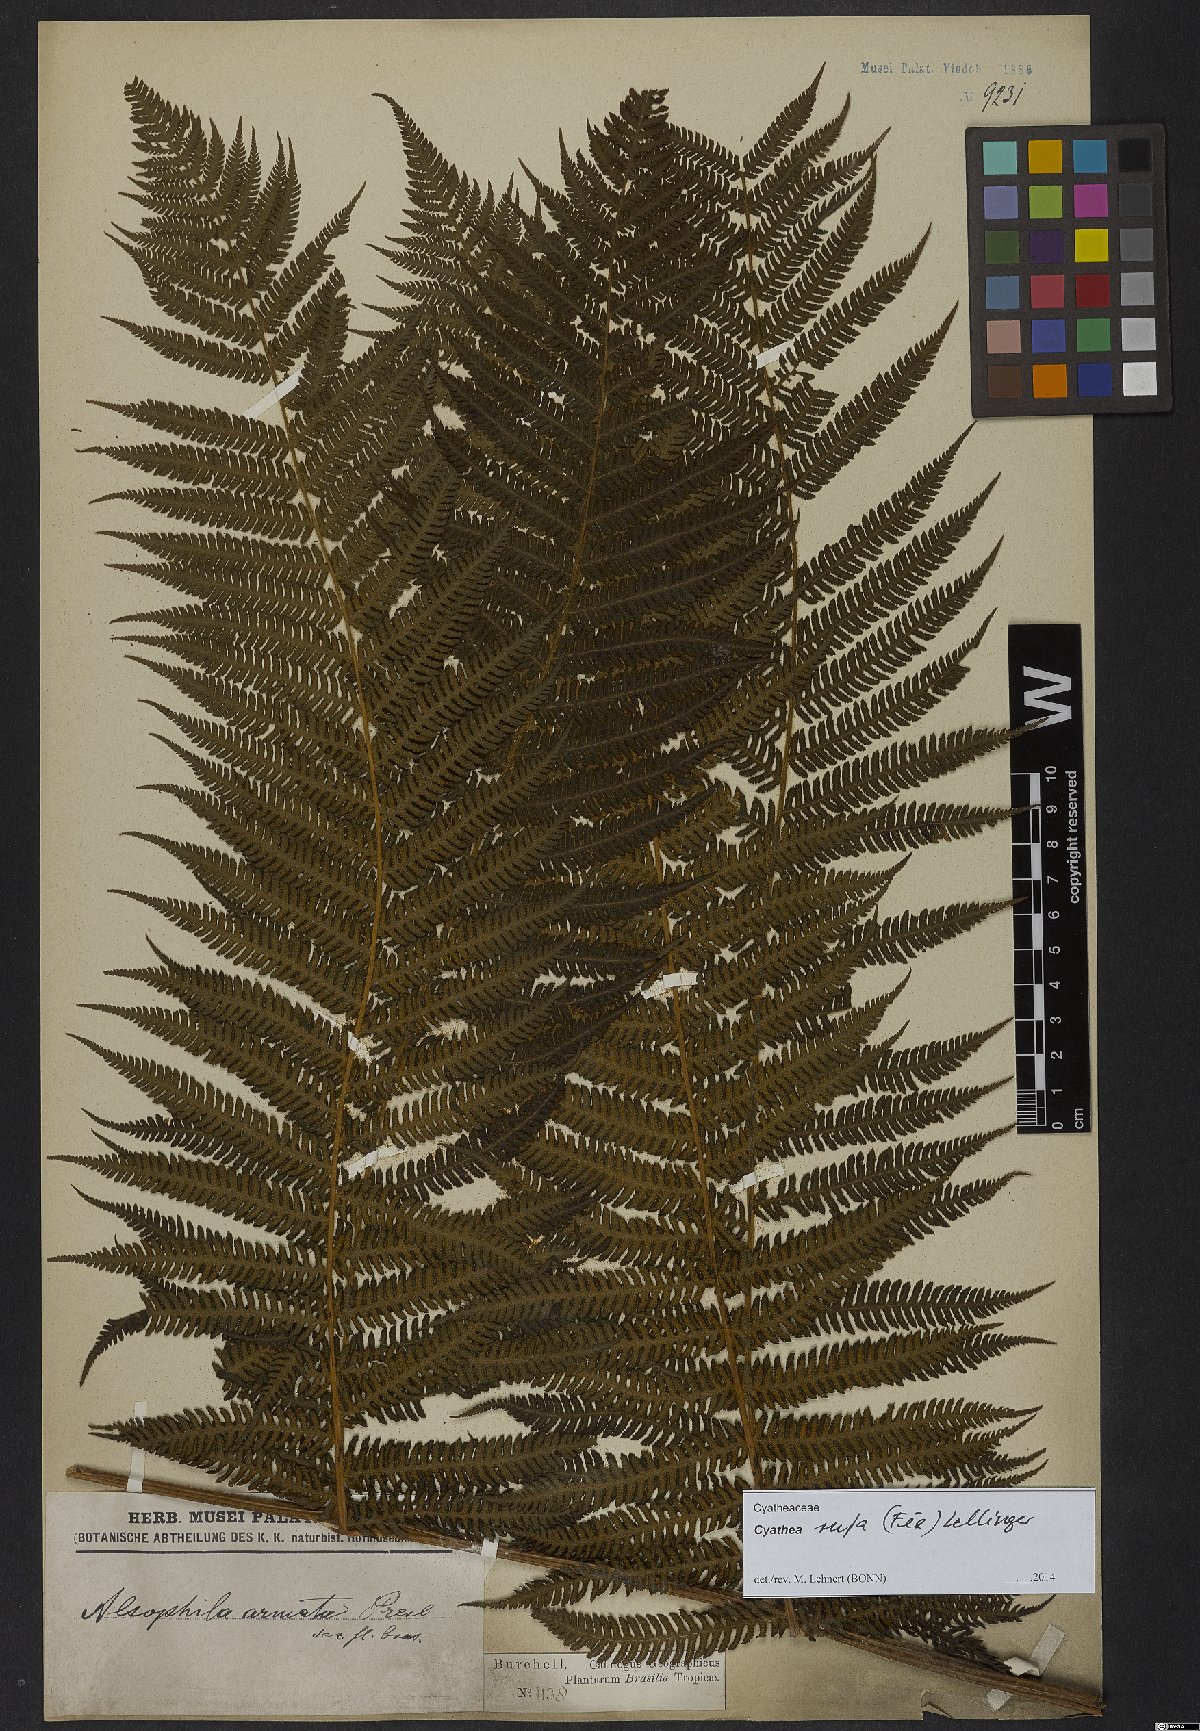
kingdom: Plantae
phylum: Tracheophyta
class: Polypodiopsida
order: Cyatheales
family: Cyatheaceae
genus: Cyathea
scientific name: Cyathea rufa
